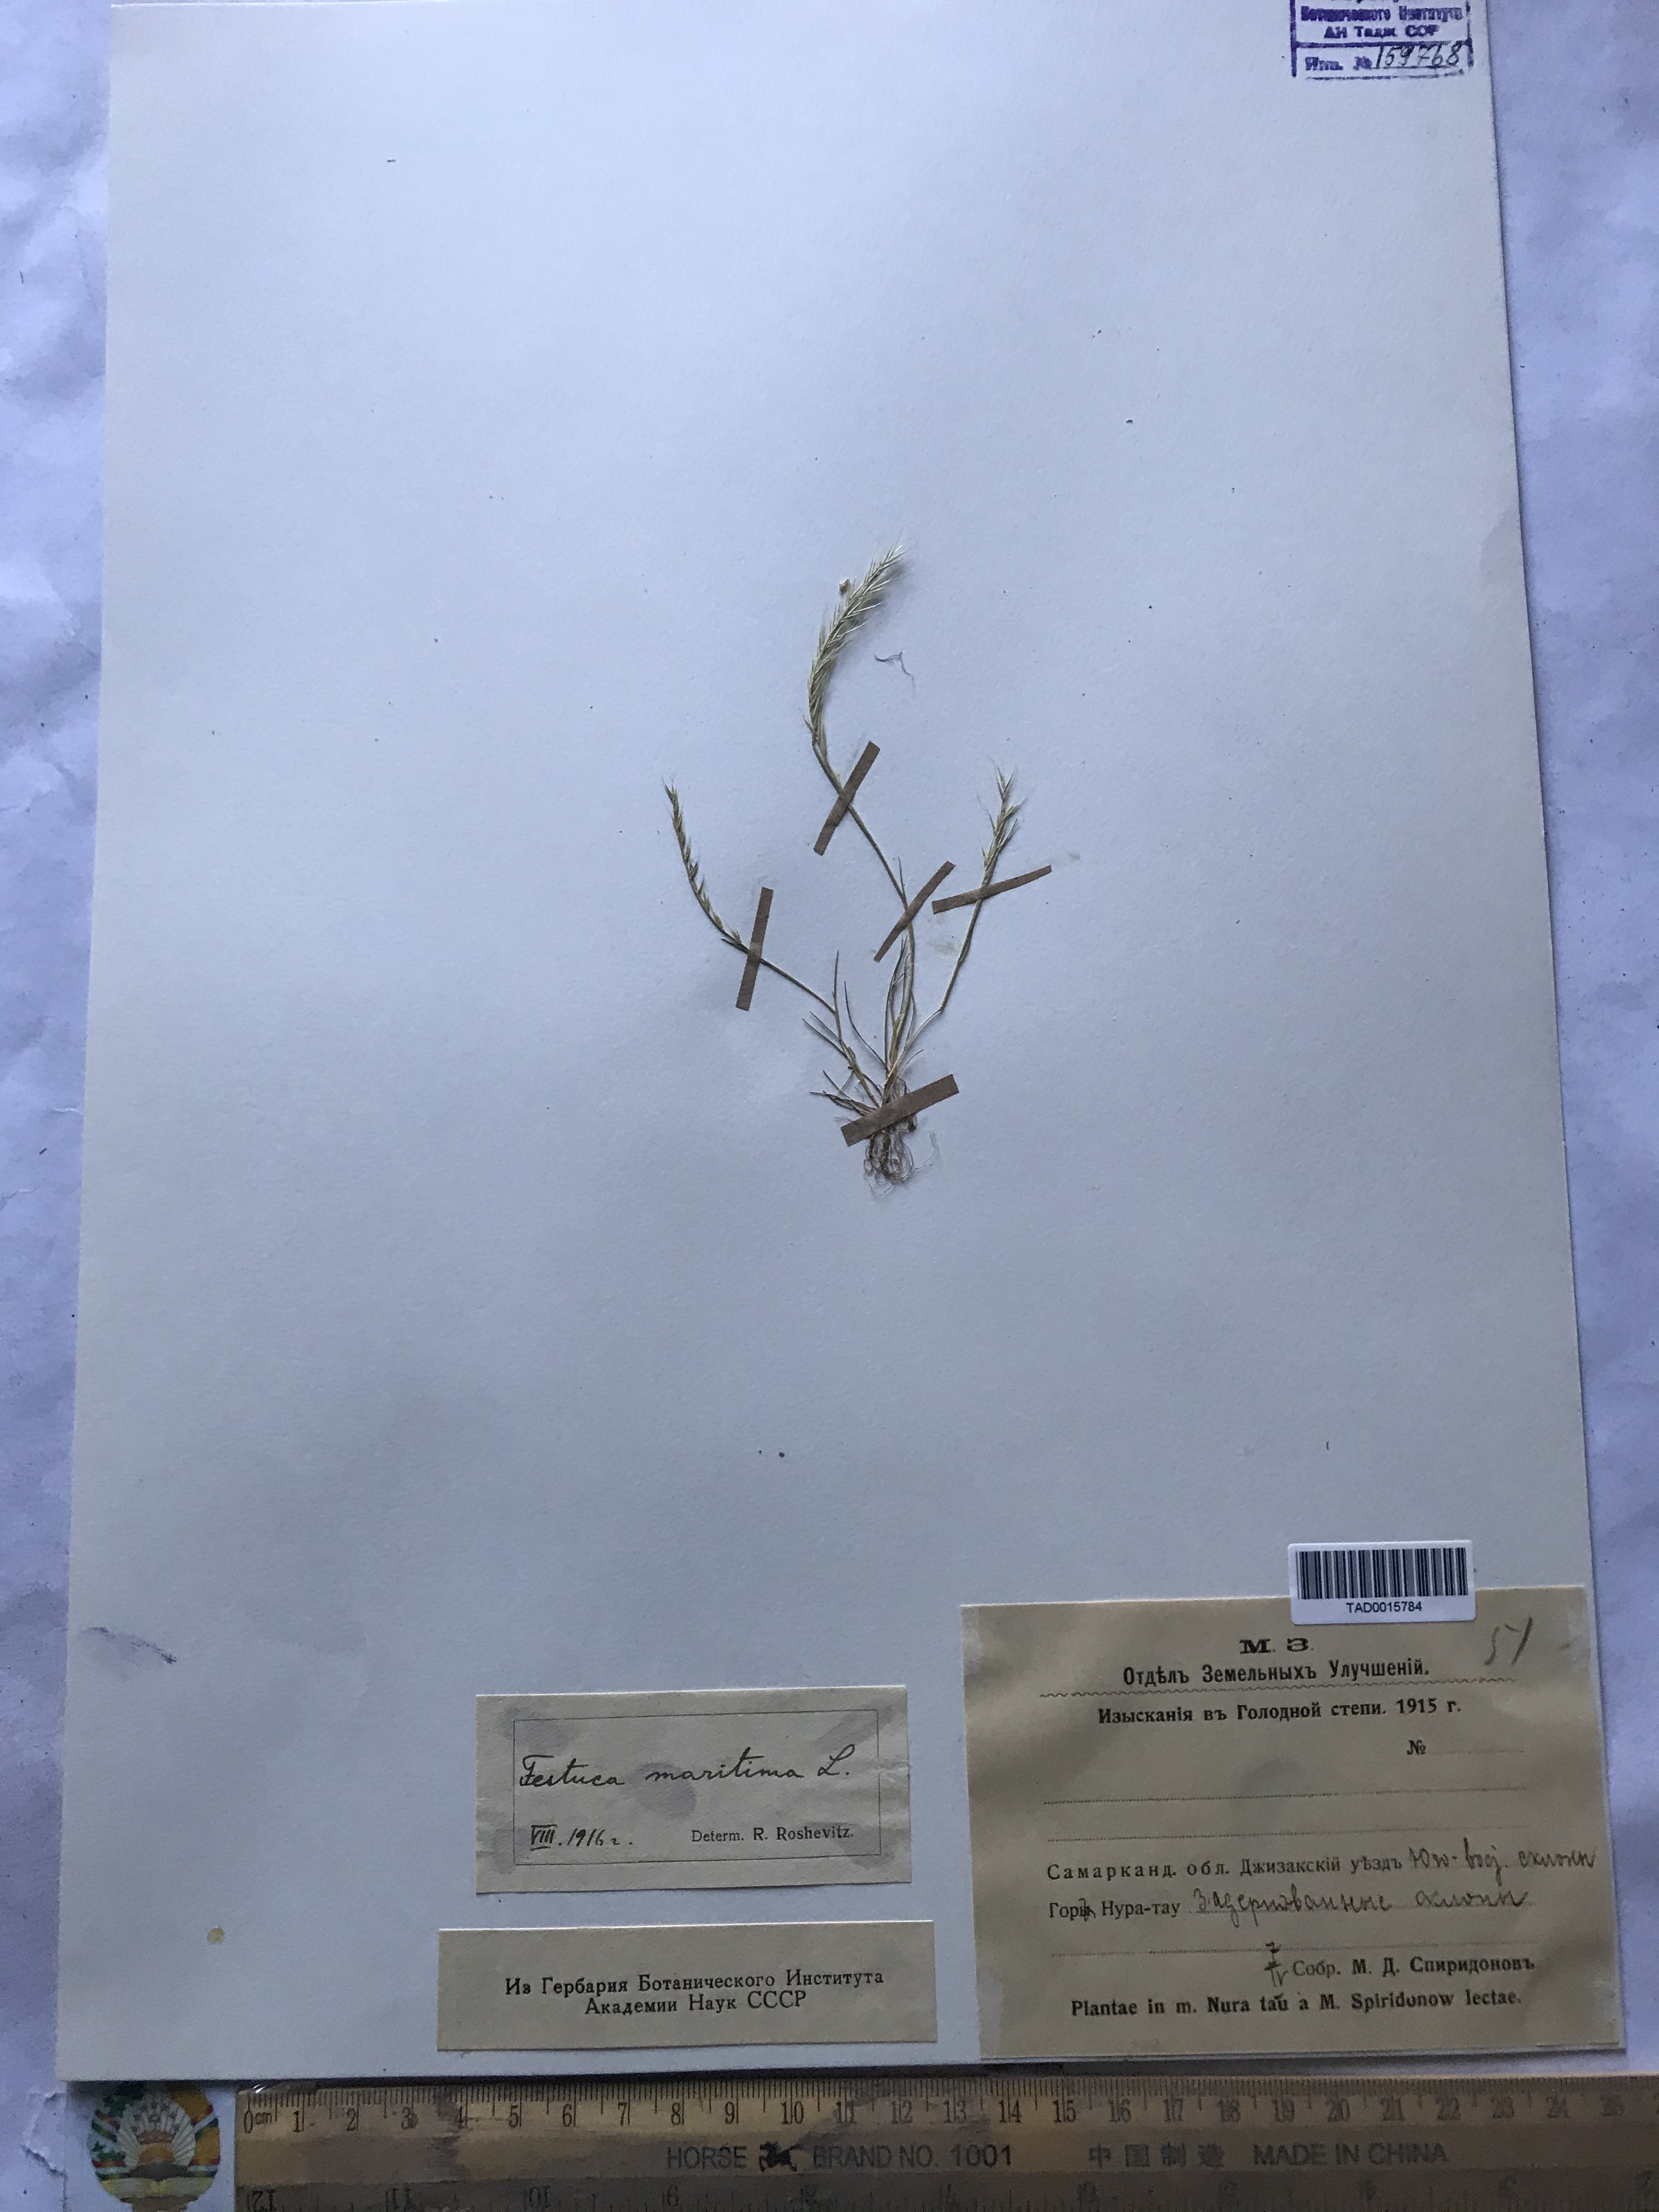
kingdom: Plantae
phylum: Tracheophyta
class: Liliopsida
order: Poales
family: Poaceae
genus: Festuca
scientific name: Festuca maritima
